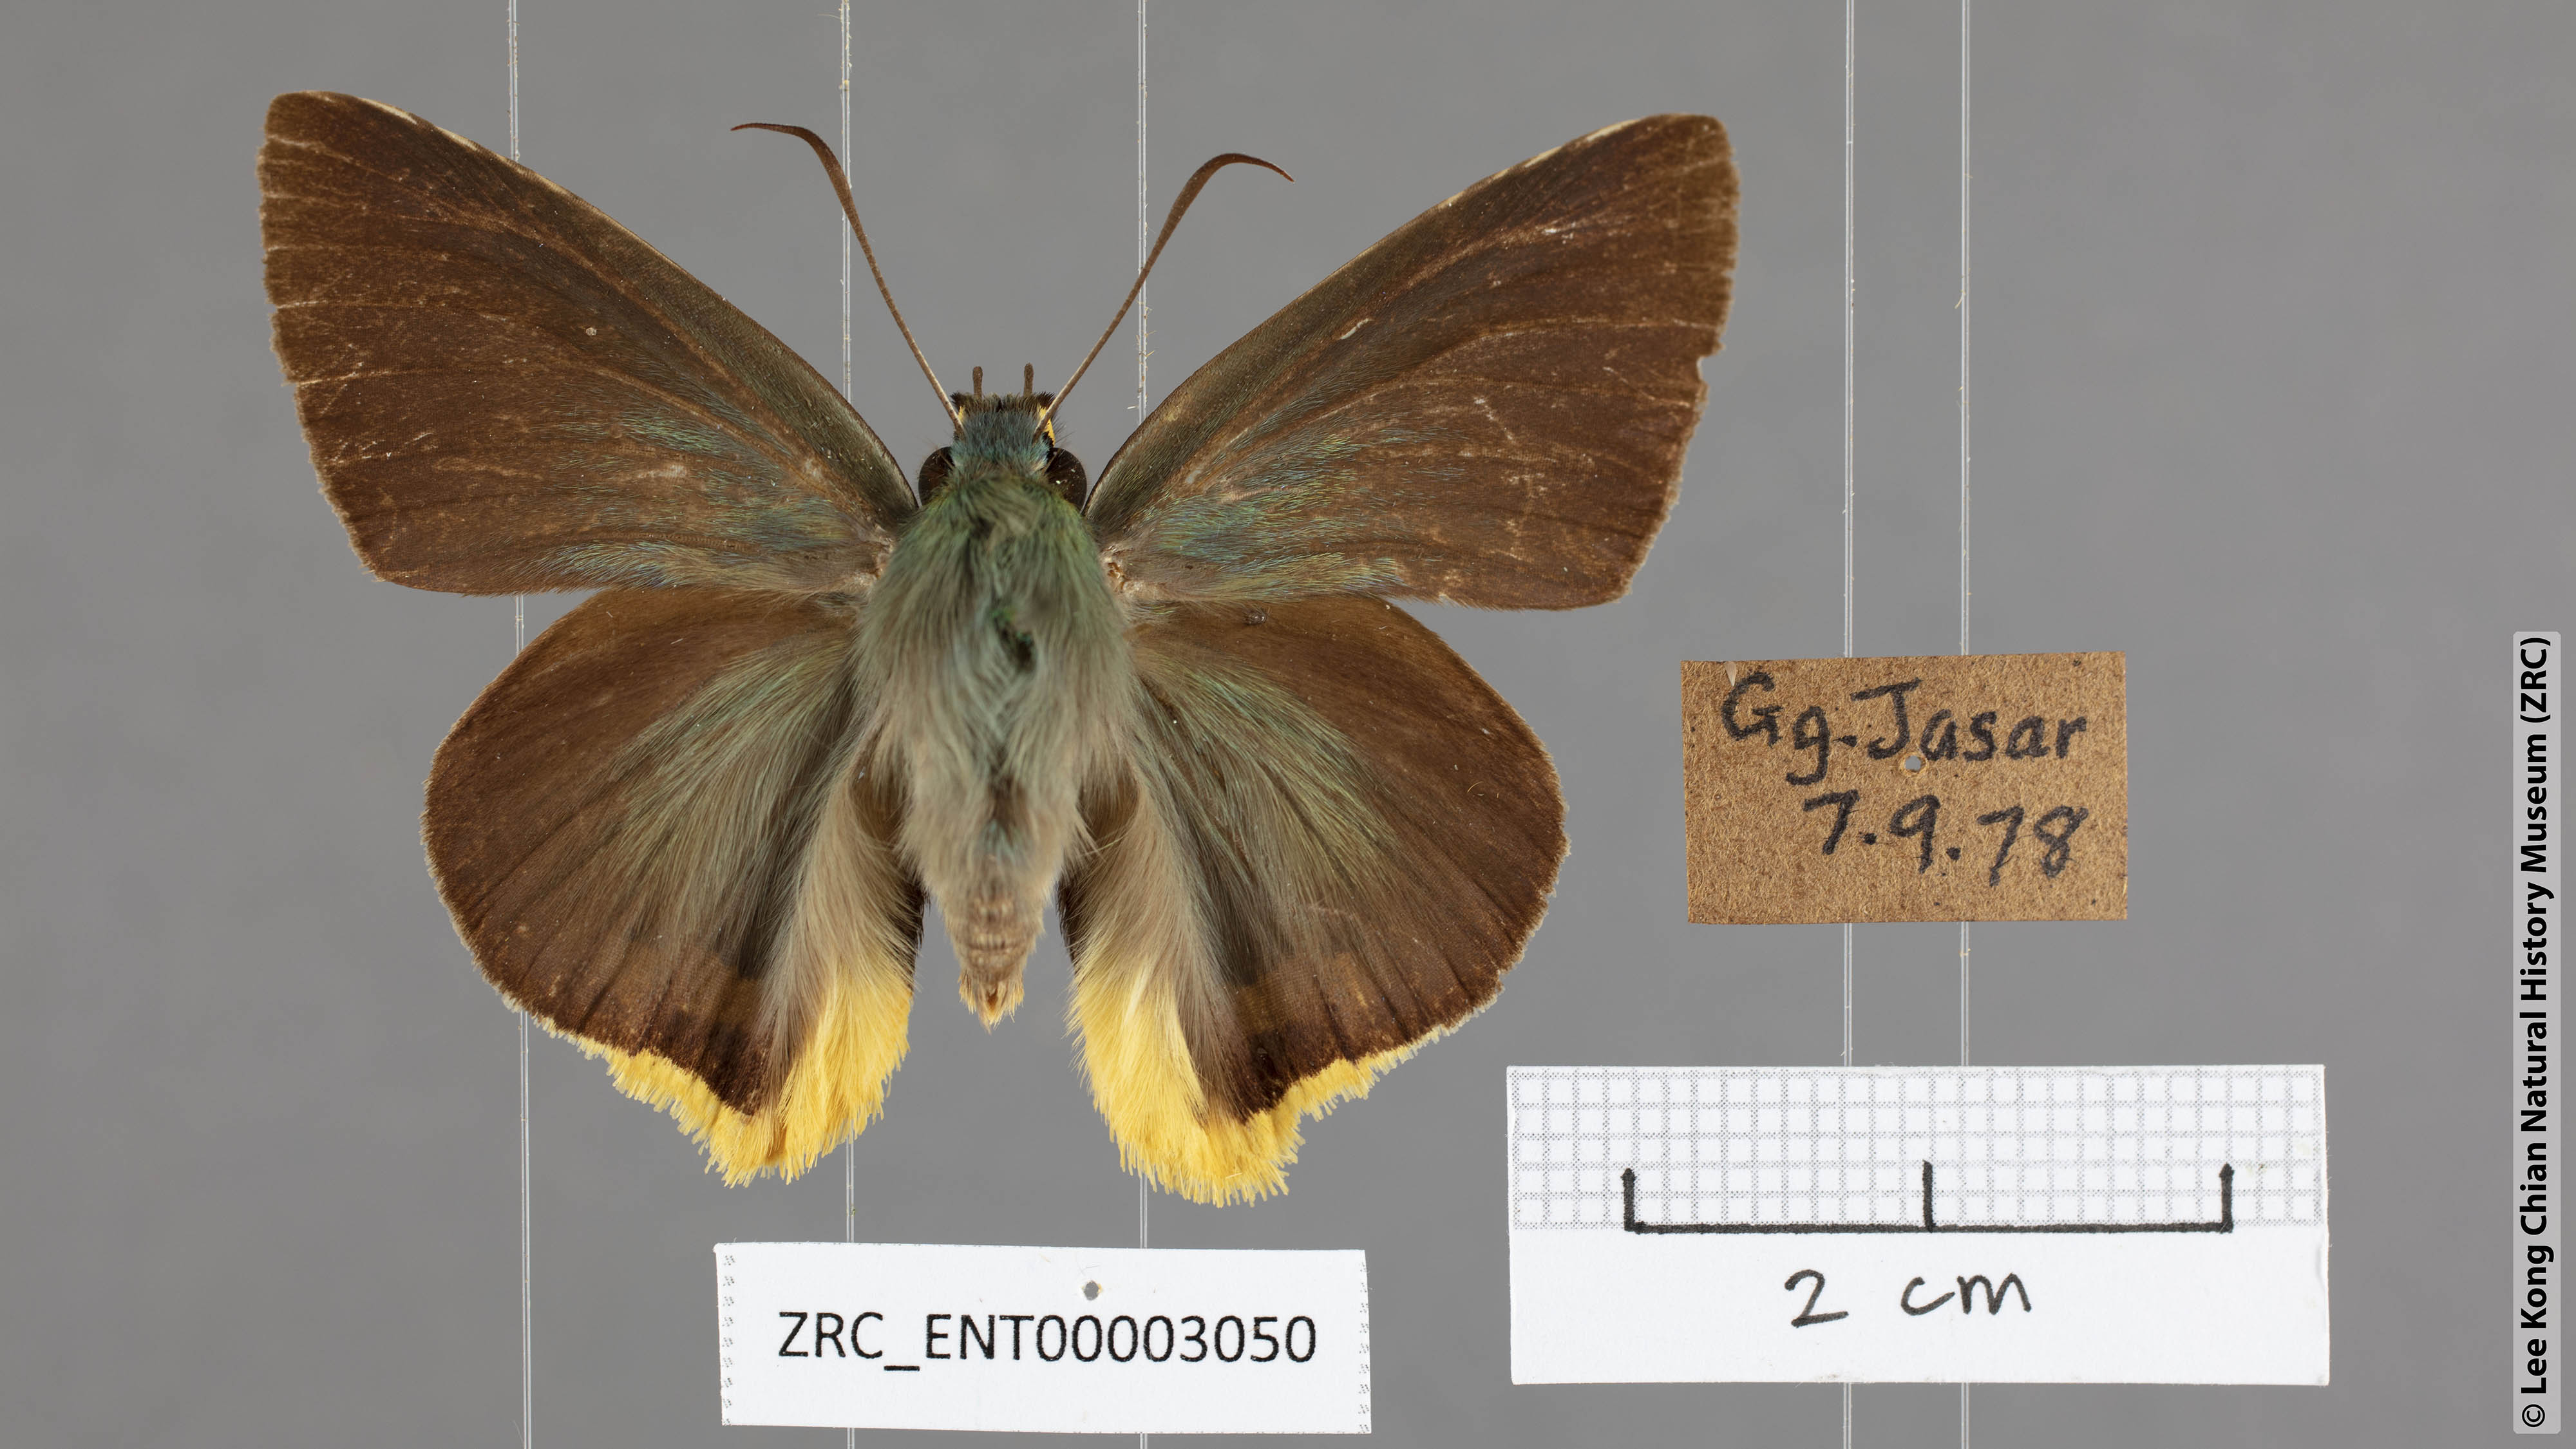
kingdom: Animalia
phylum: Arthropoda
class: Insecta
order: Lepidoptera
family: Hesperiidae
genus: Choaspes
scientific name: Choaspes benjaminii
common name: Indian awlking
